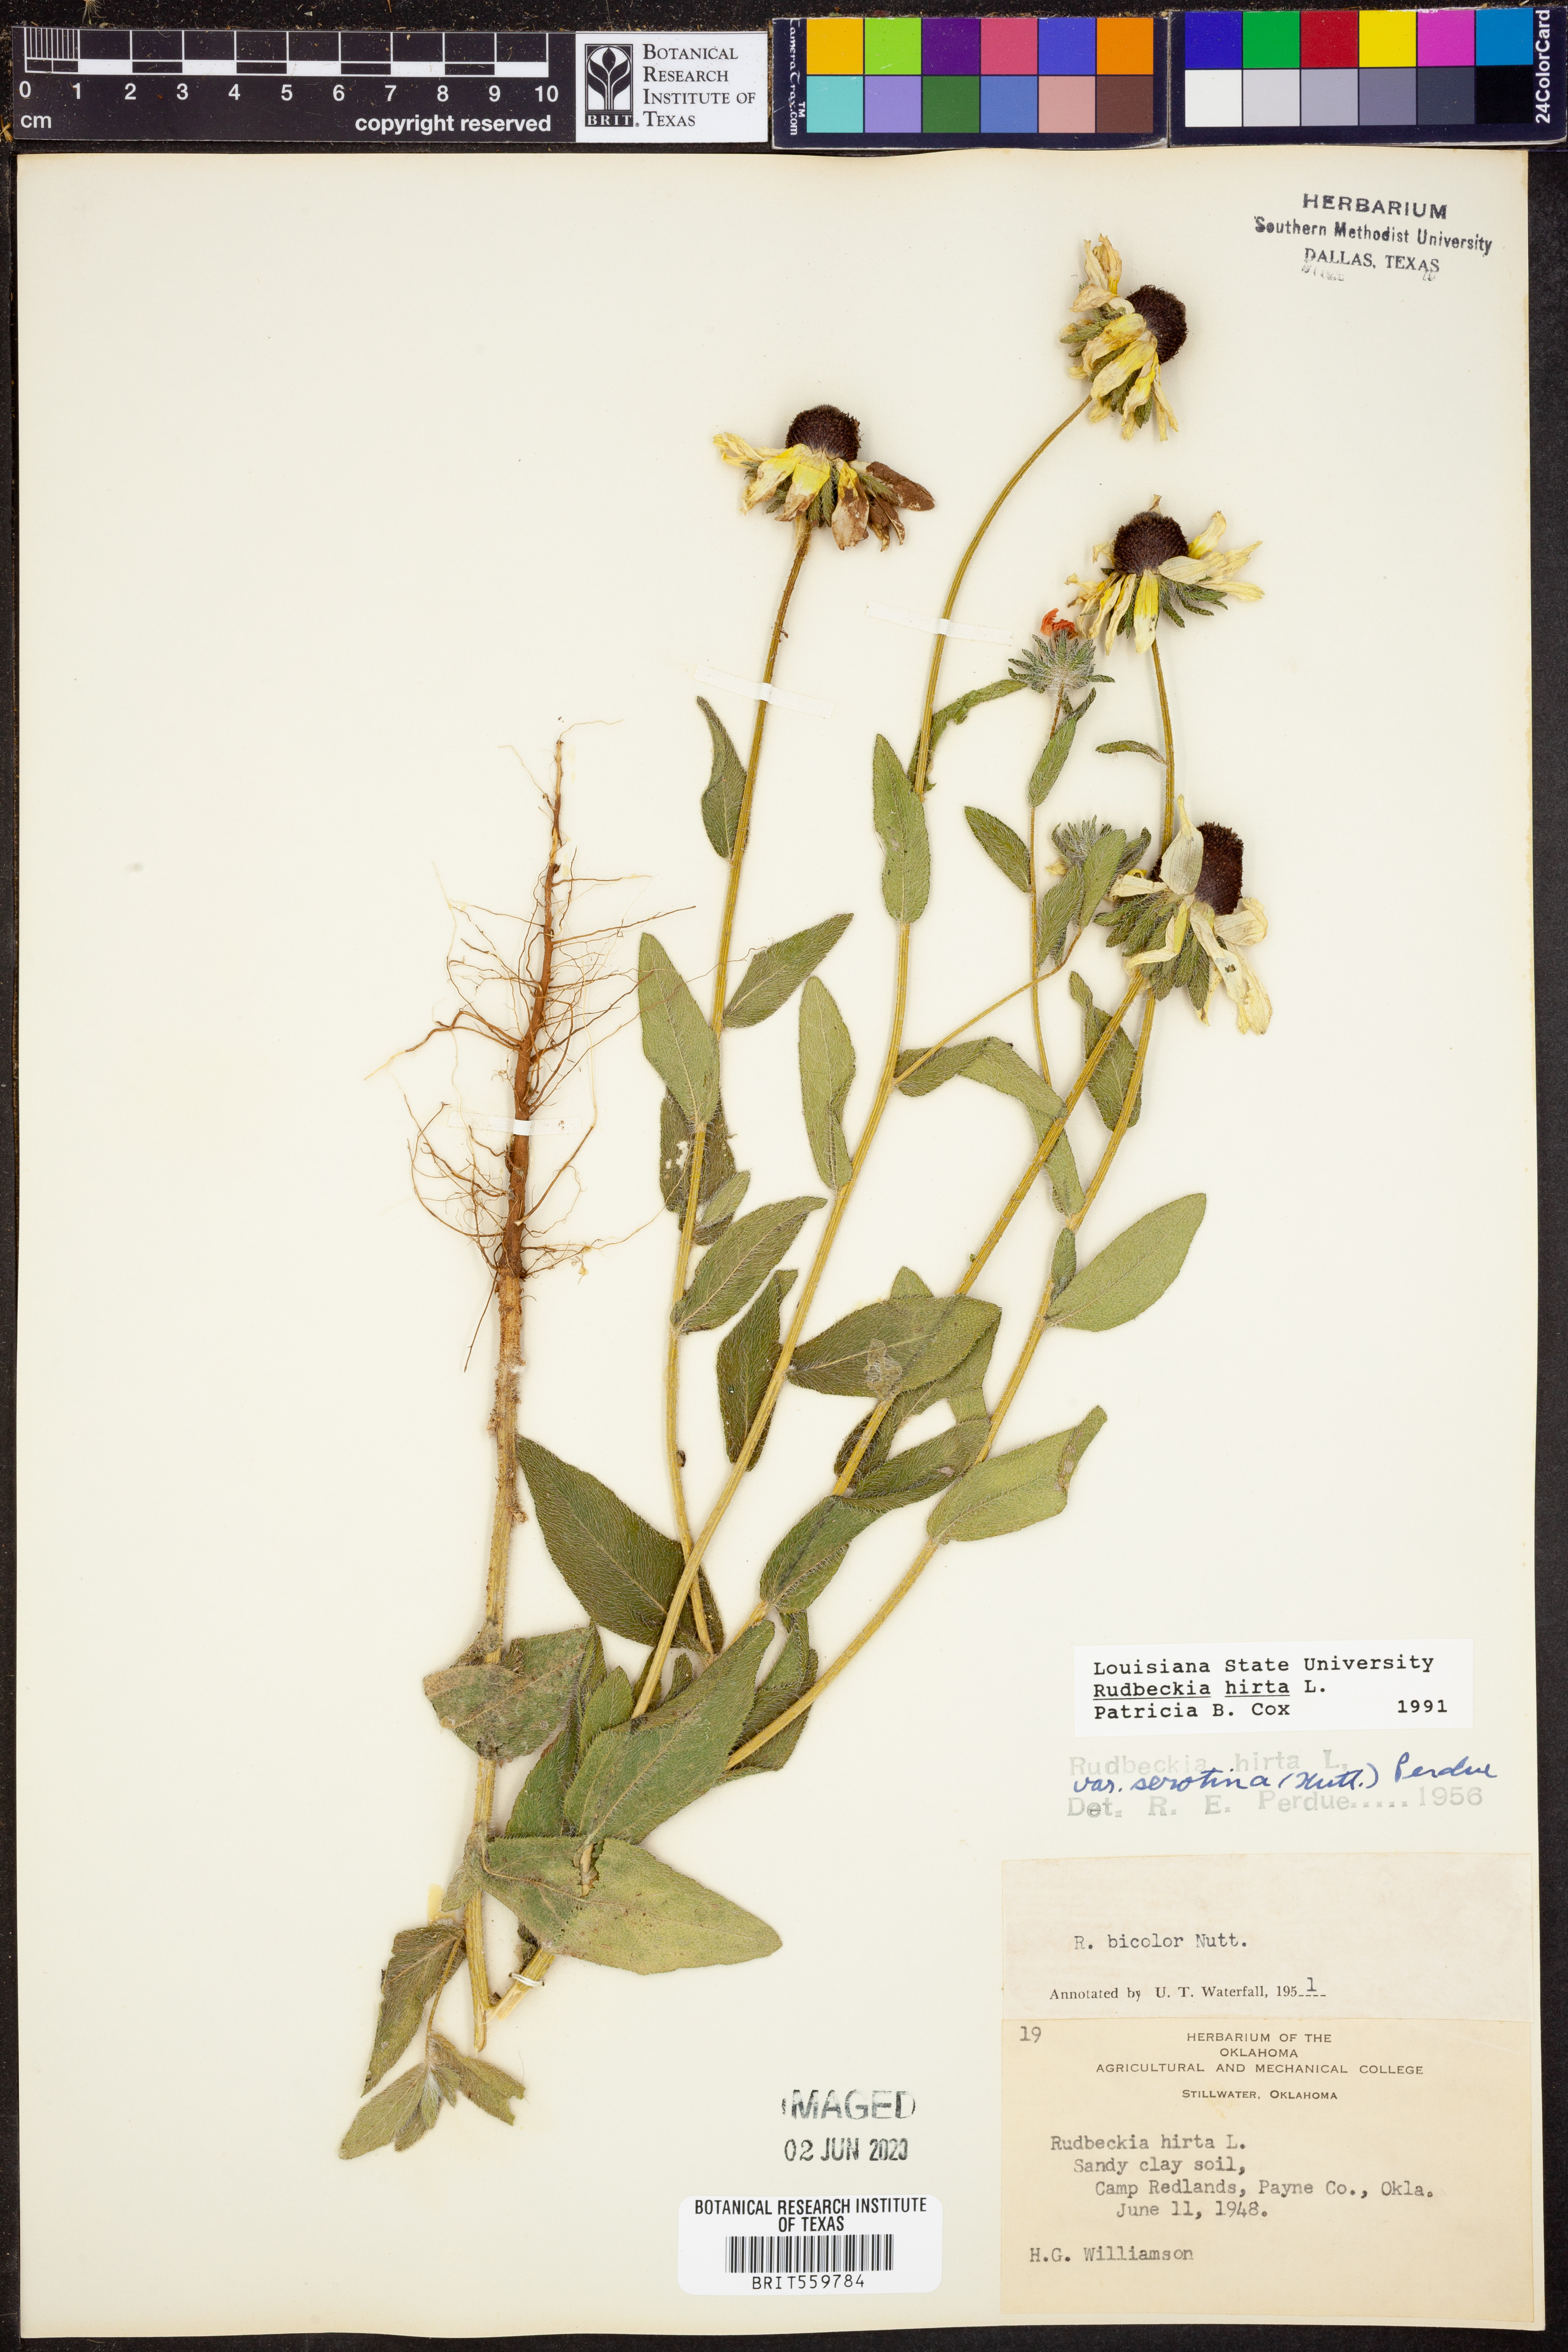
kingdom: Plantae
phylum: Tracheophyta
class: Magnoliopsida
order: Asterales
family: Asteraceae
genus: Rudbeckia
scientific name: Rudbeckia hirta
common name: Black-eyed-susan
